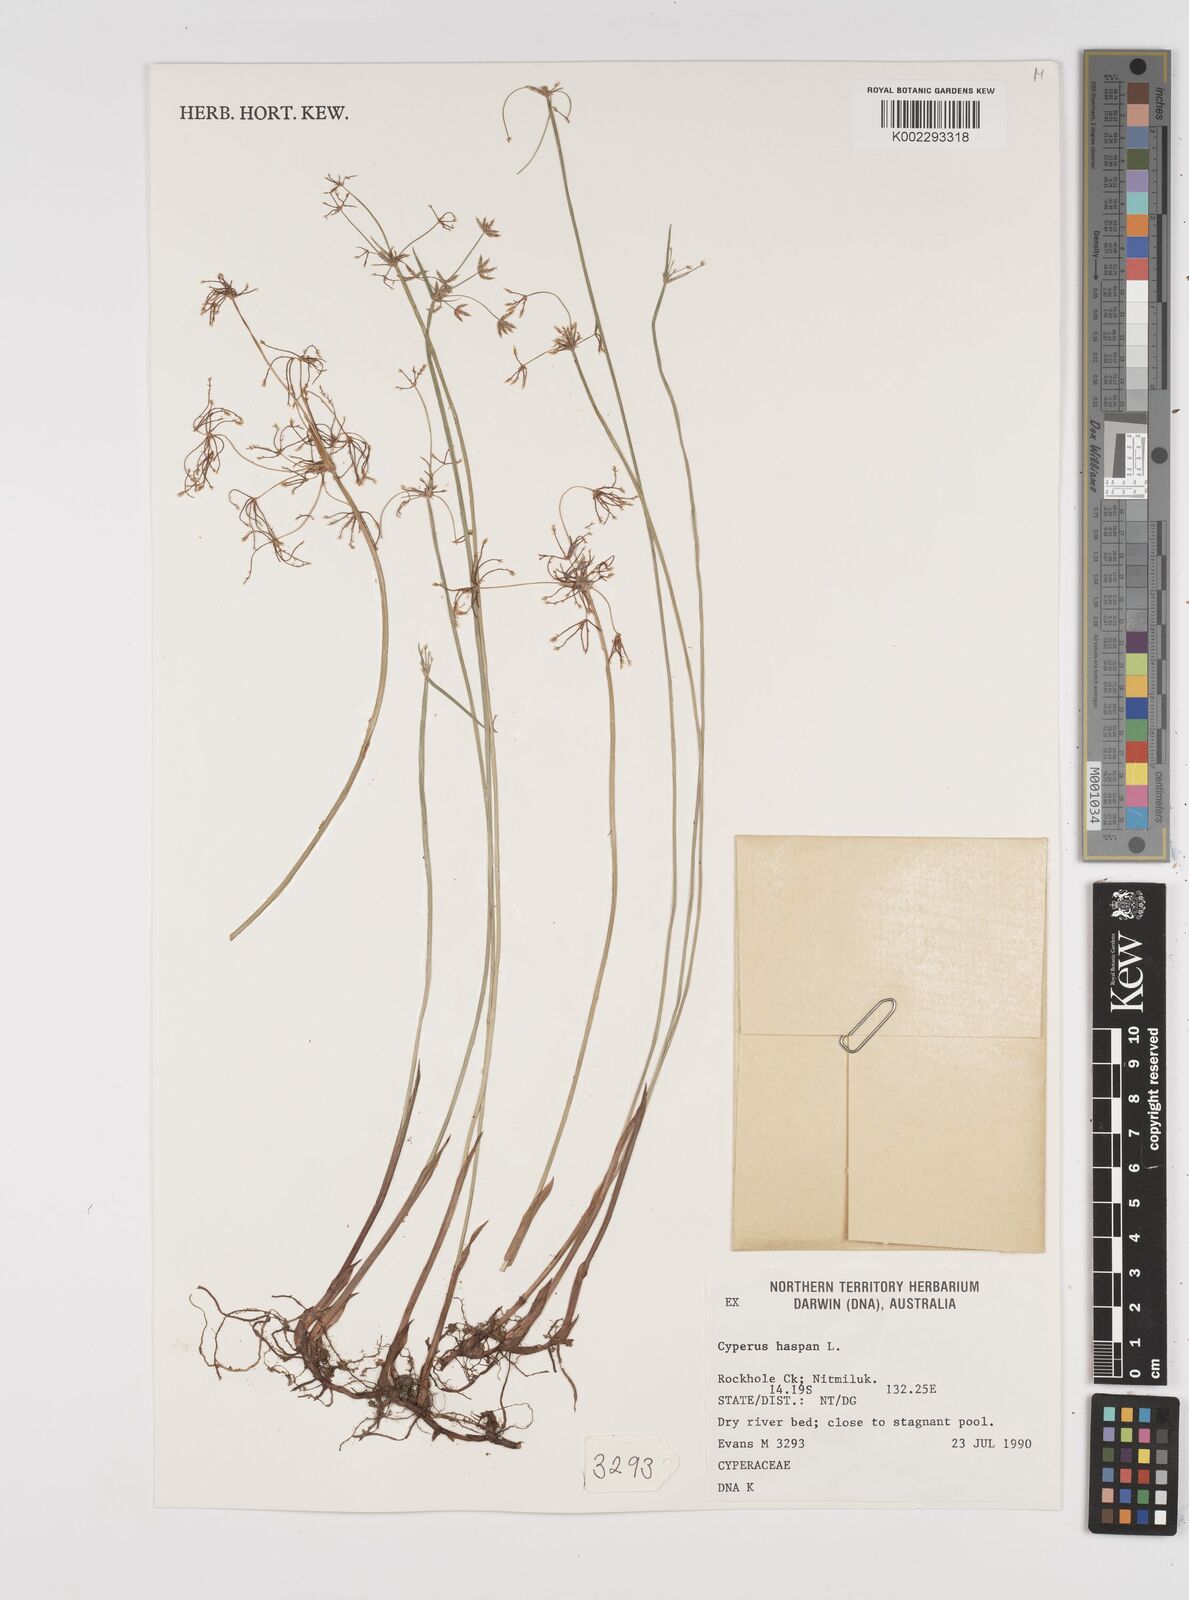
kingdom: Plantae
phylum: Tracheophyta
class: Liliopsida
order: Poales
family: Cyperaceae
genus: Cyperus
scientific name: Cyperus haspan
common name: Haspan flatsedge
